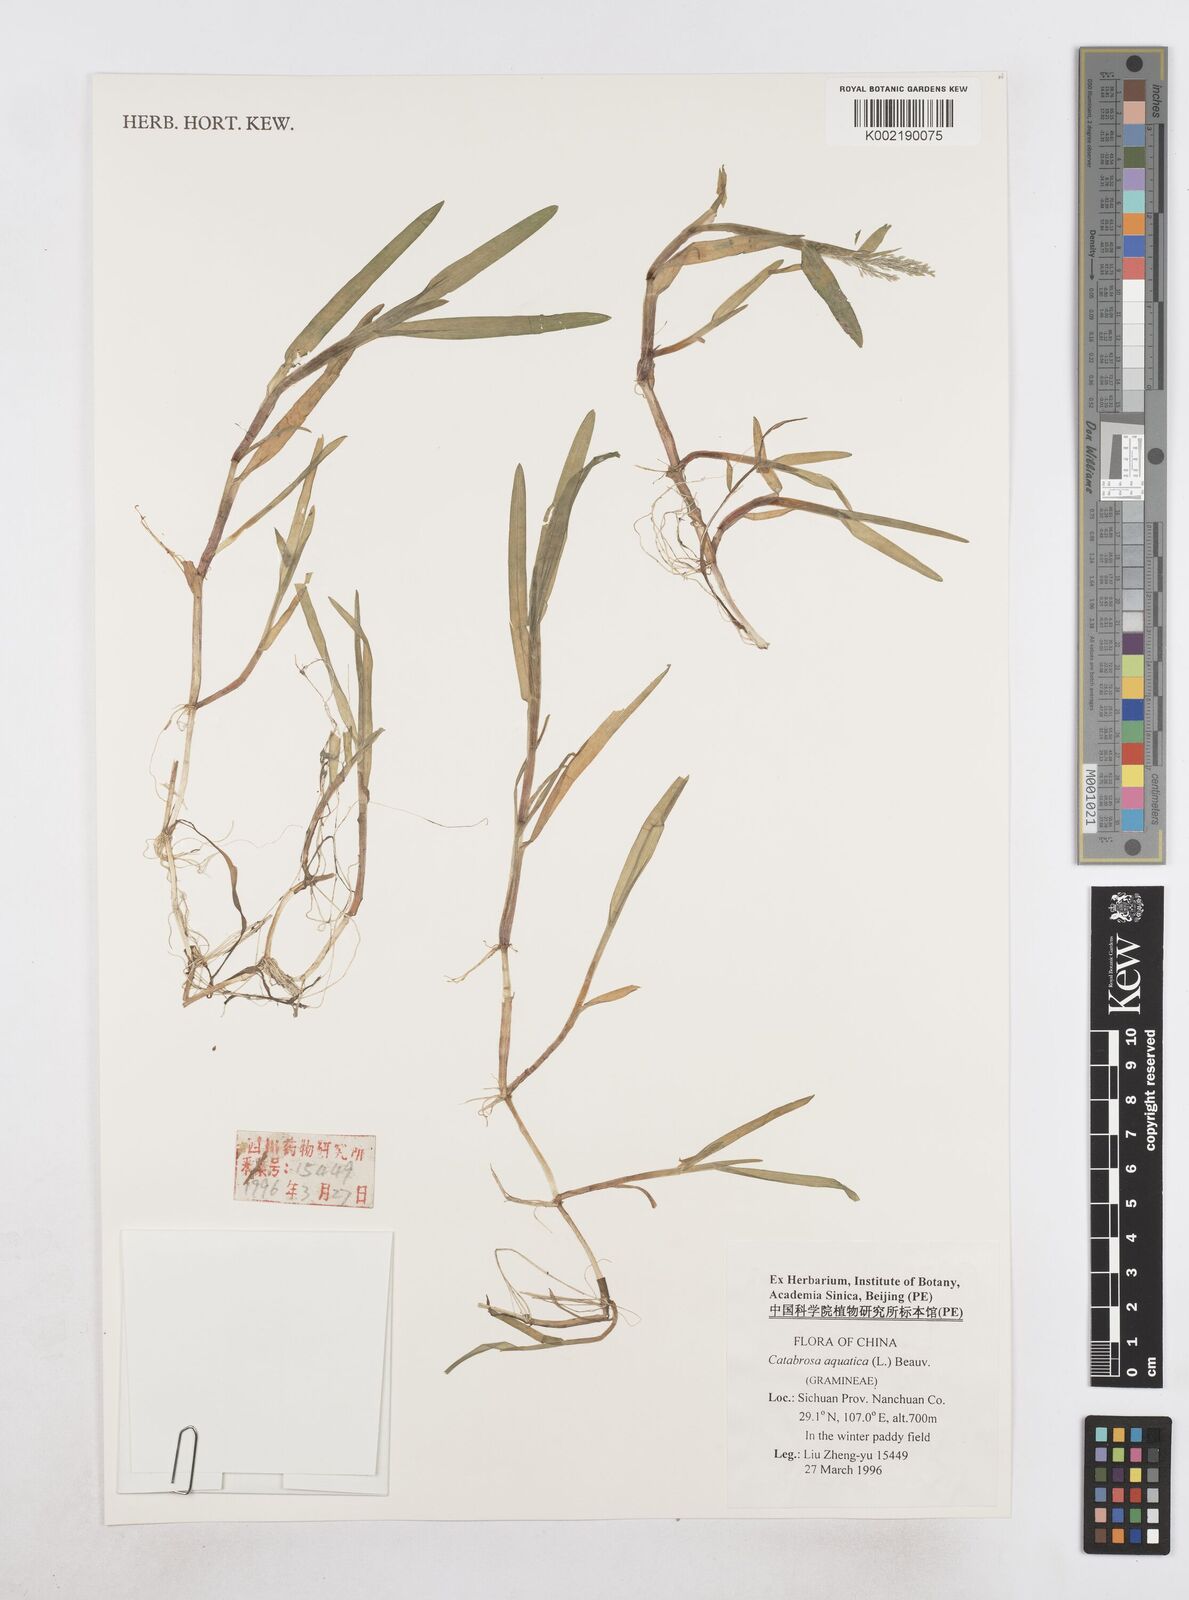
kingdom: Plantae
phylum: Tracheophyta
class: Liliopsida
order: Poales
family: Poaceae
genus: Catabrosa
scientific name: Catabrosa aquatica
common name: Whorl-grass
